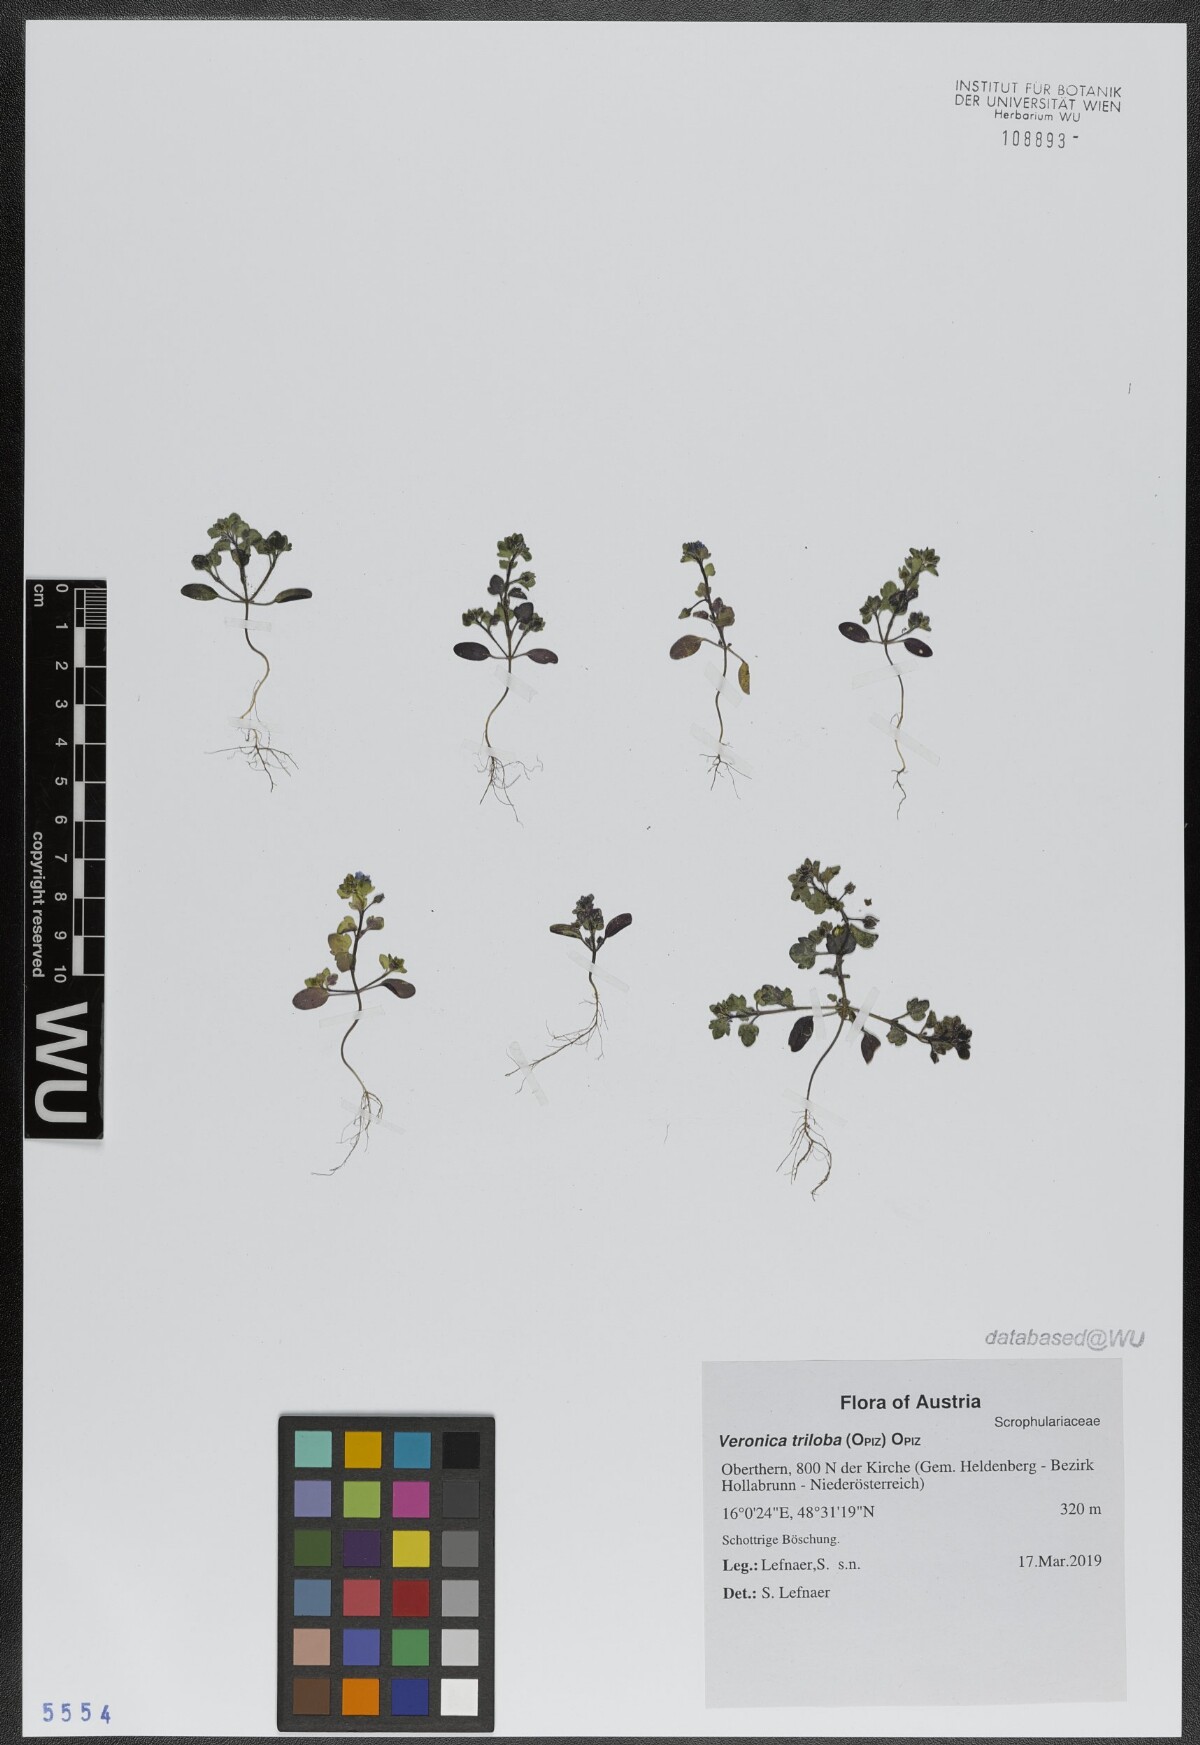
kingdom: Plantae
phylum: Tracheophyta
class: Magnoliopsida
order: Lamiales
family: Plantaginaceae
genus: Veronica
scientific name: Veronica triphyllos
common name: Fingered speedwell
